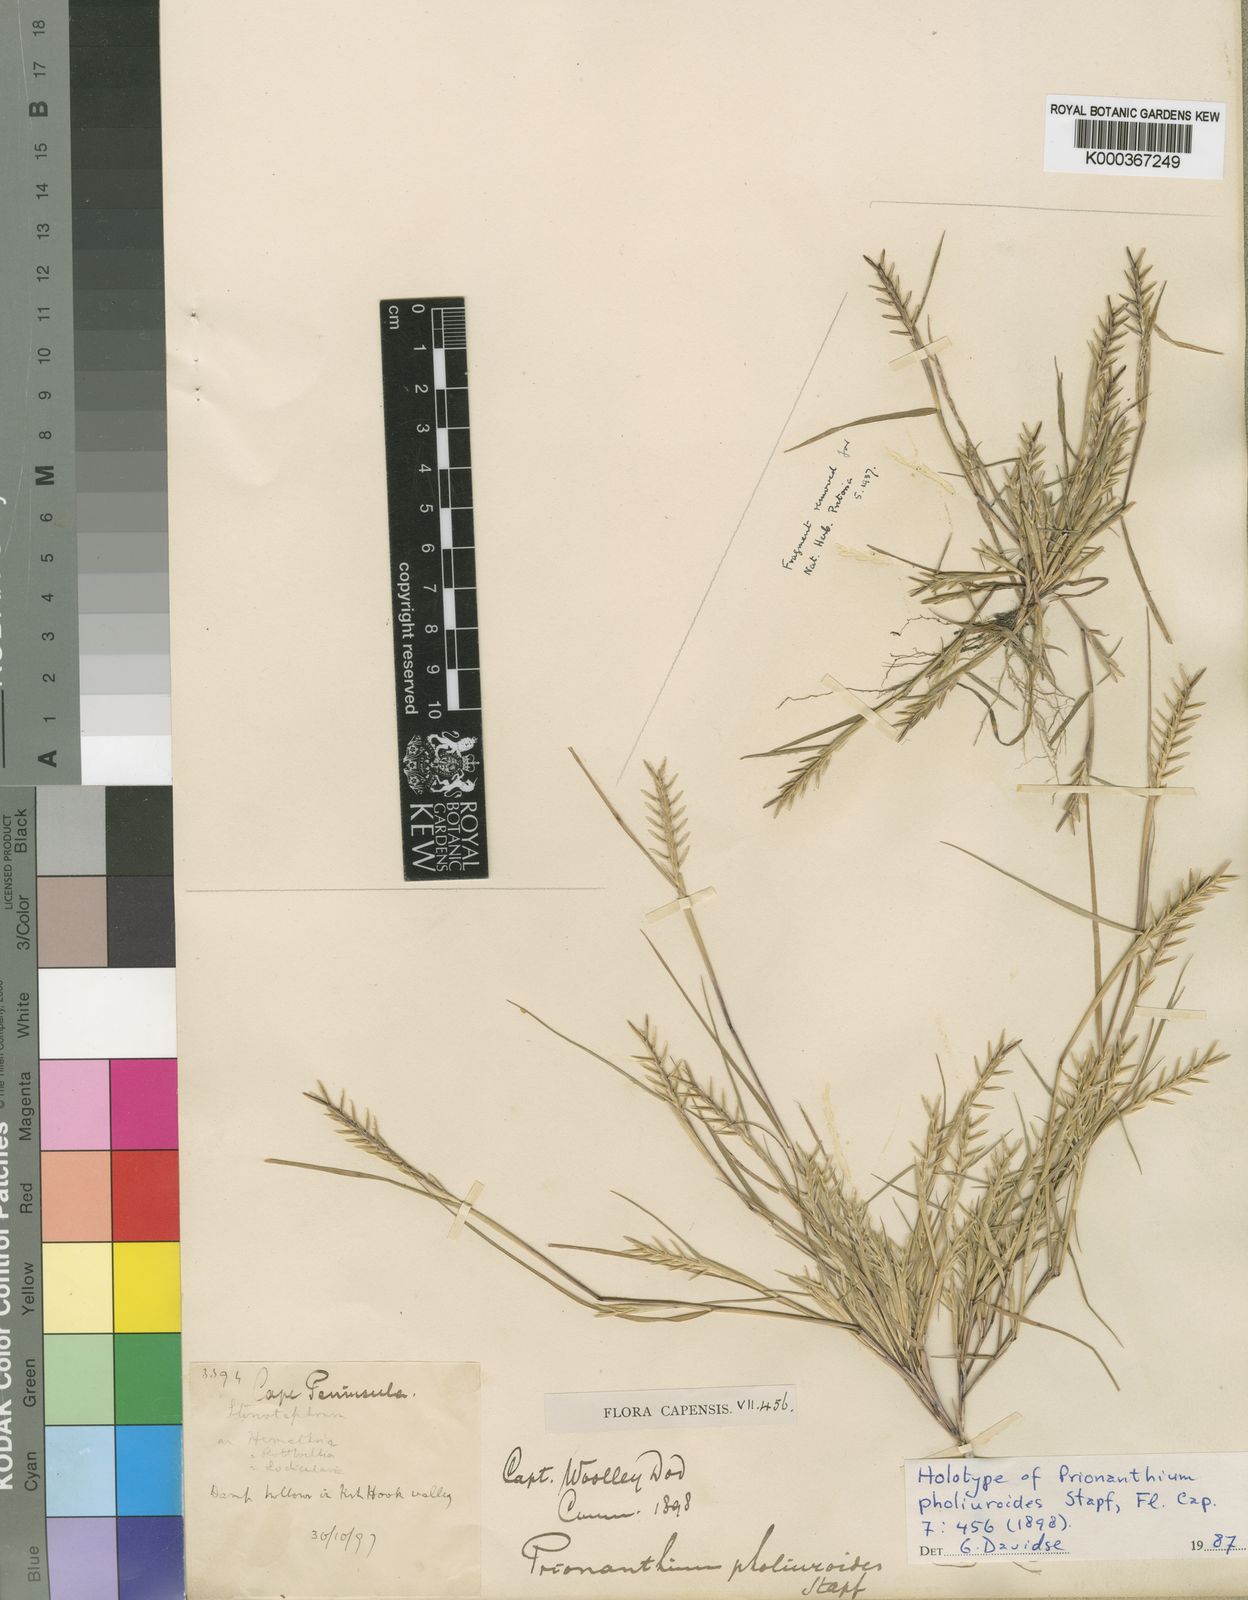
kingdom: Plantae
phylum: Tracheophyta
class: Liliopsida
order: Poales
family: Poaceae
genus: Pentameris
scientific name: Pentameris pholiuroides
